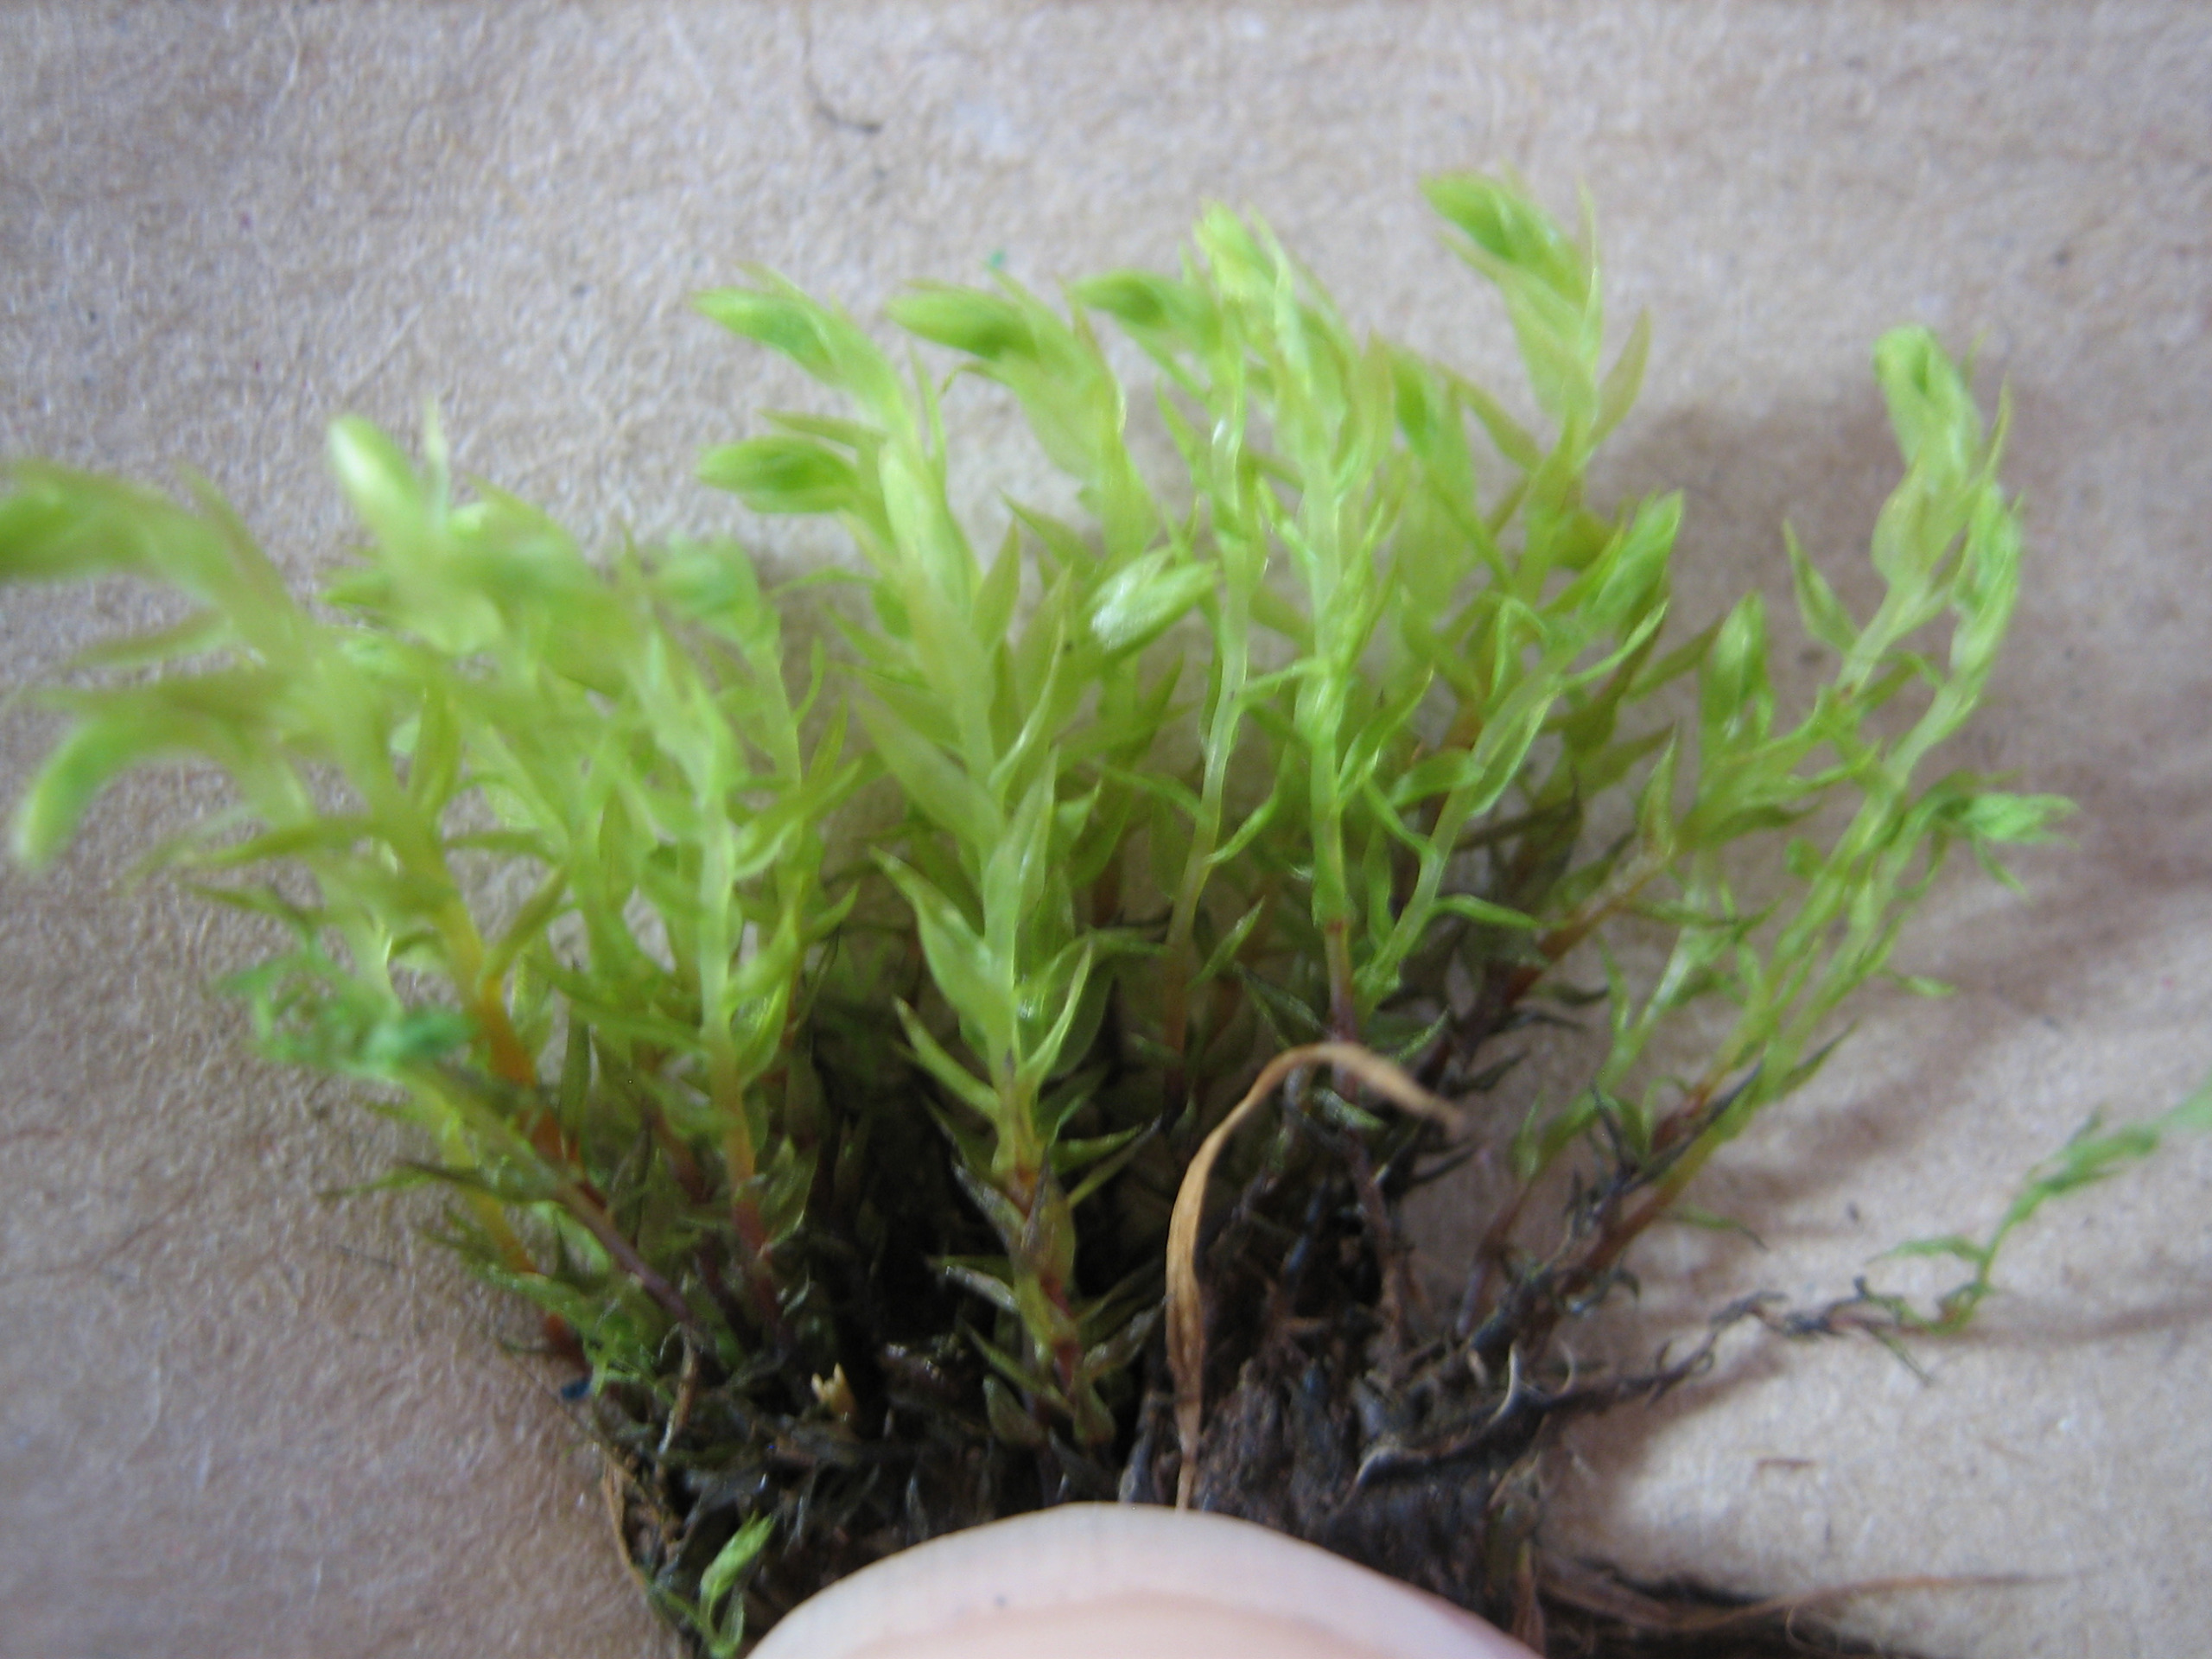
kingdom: Plantae
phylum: Bryophyta
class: Bryopsida
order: Bryales
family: Mniaceae
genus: Pohlia
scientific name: Pohlia wahlenbergii
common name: Lysegrøn voksmos
